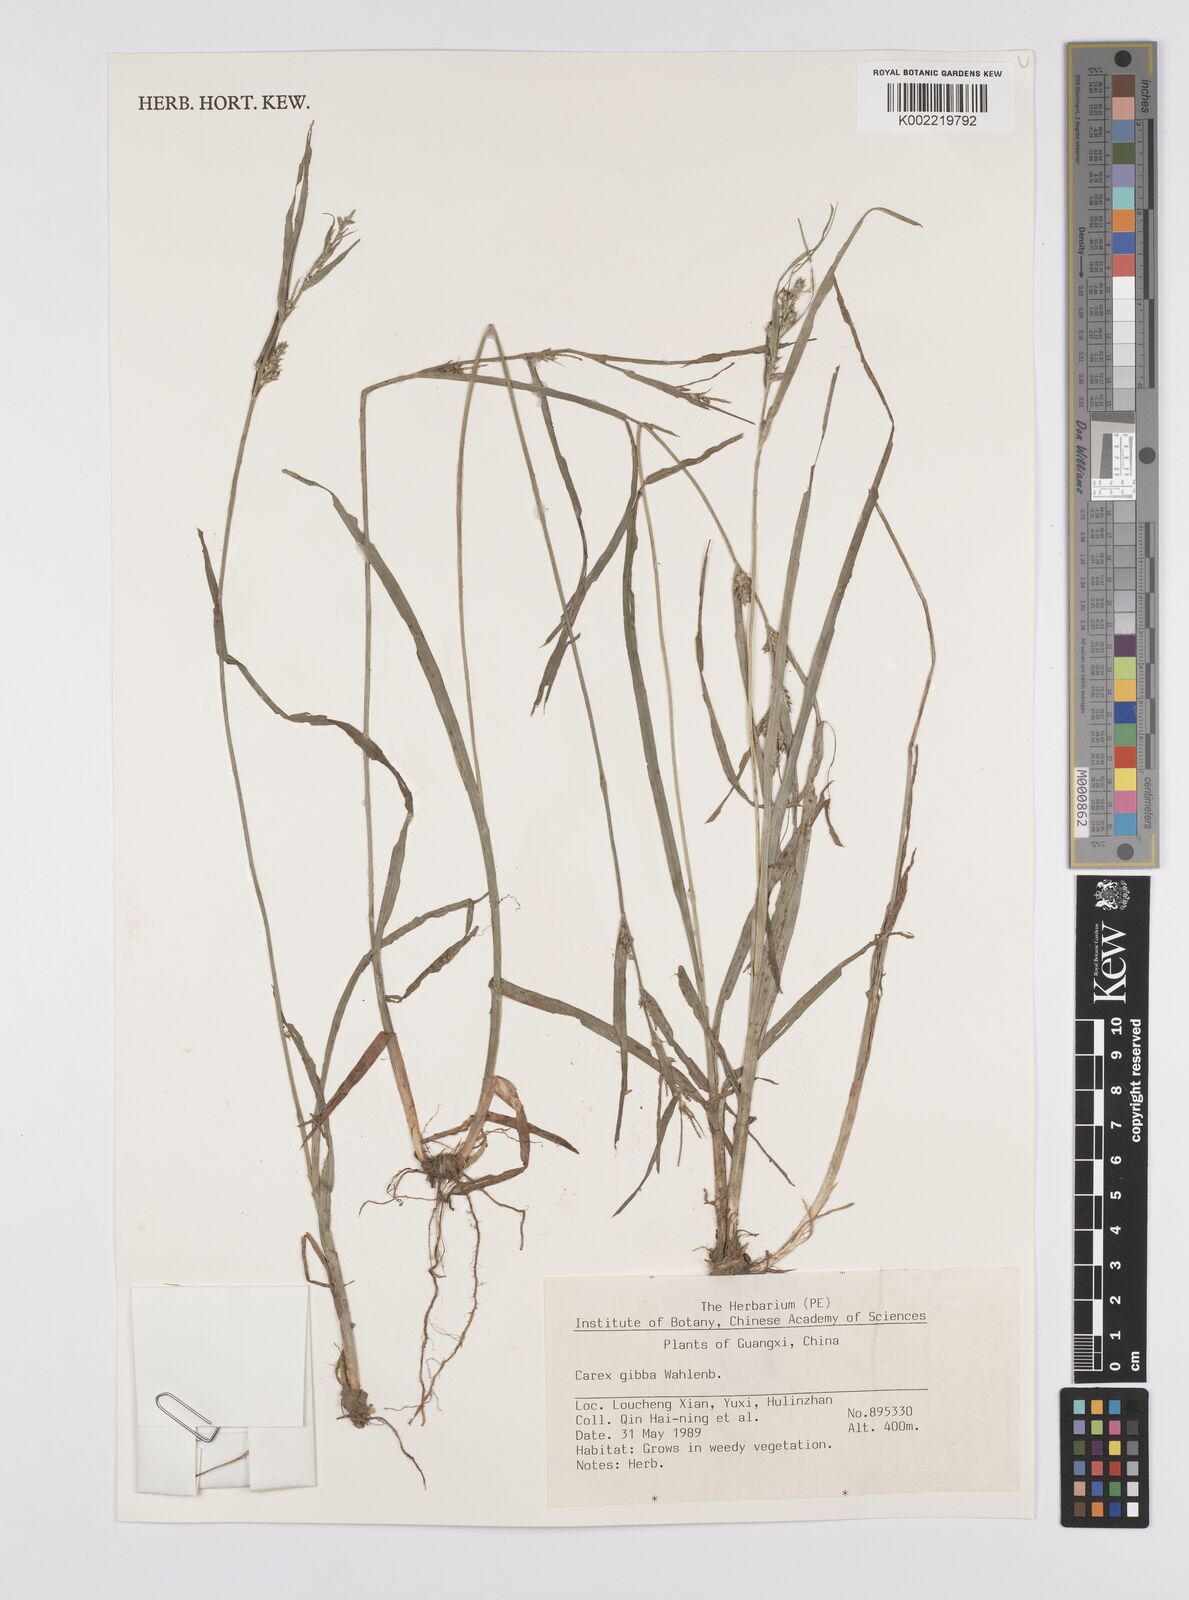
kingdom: Plantae
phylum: Tracheophyta
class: Liliopsida
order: Poales
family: Cyperaceae
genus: Carex
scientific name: Carex gibba
